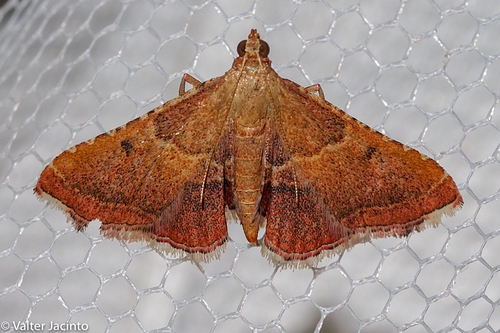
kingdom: Animalia
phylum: Arthropoda
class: Insecta
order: Lepidoptera
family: Pyralidae
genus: Endotricha
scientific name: Endotricha flammealis
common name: Rosy tabby
